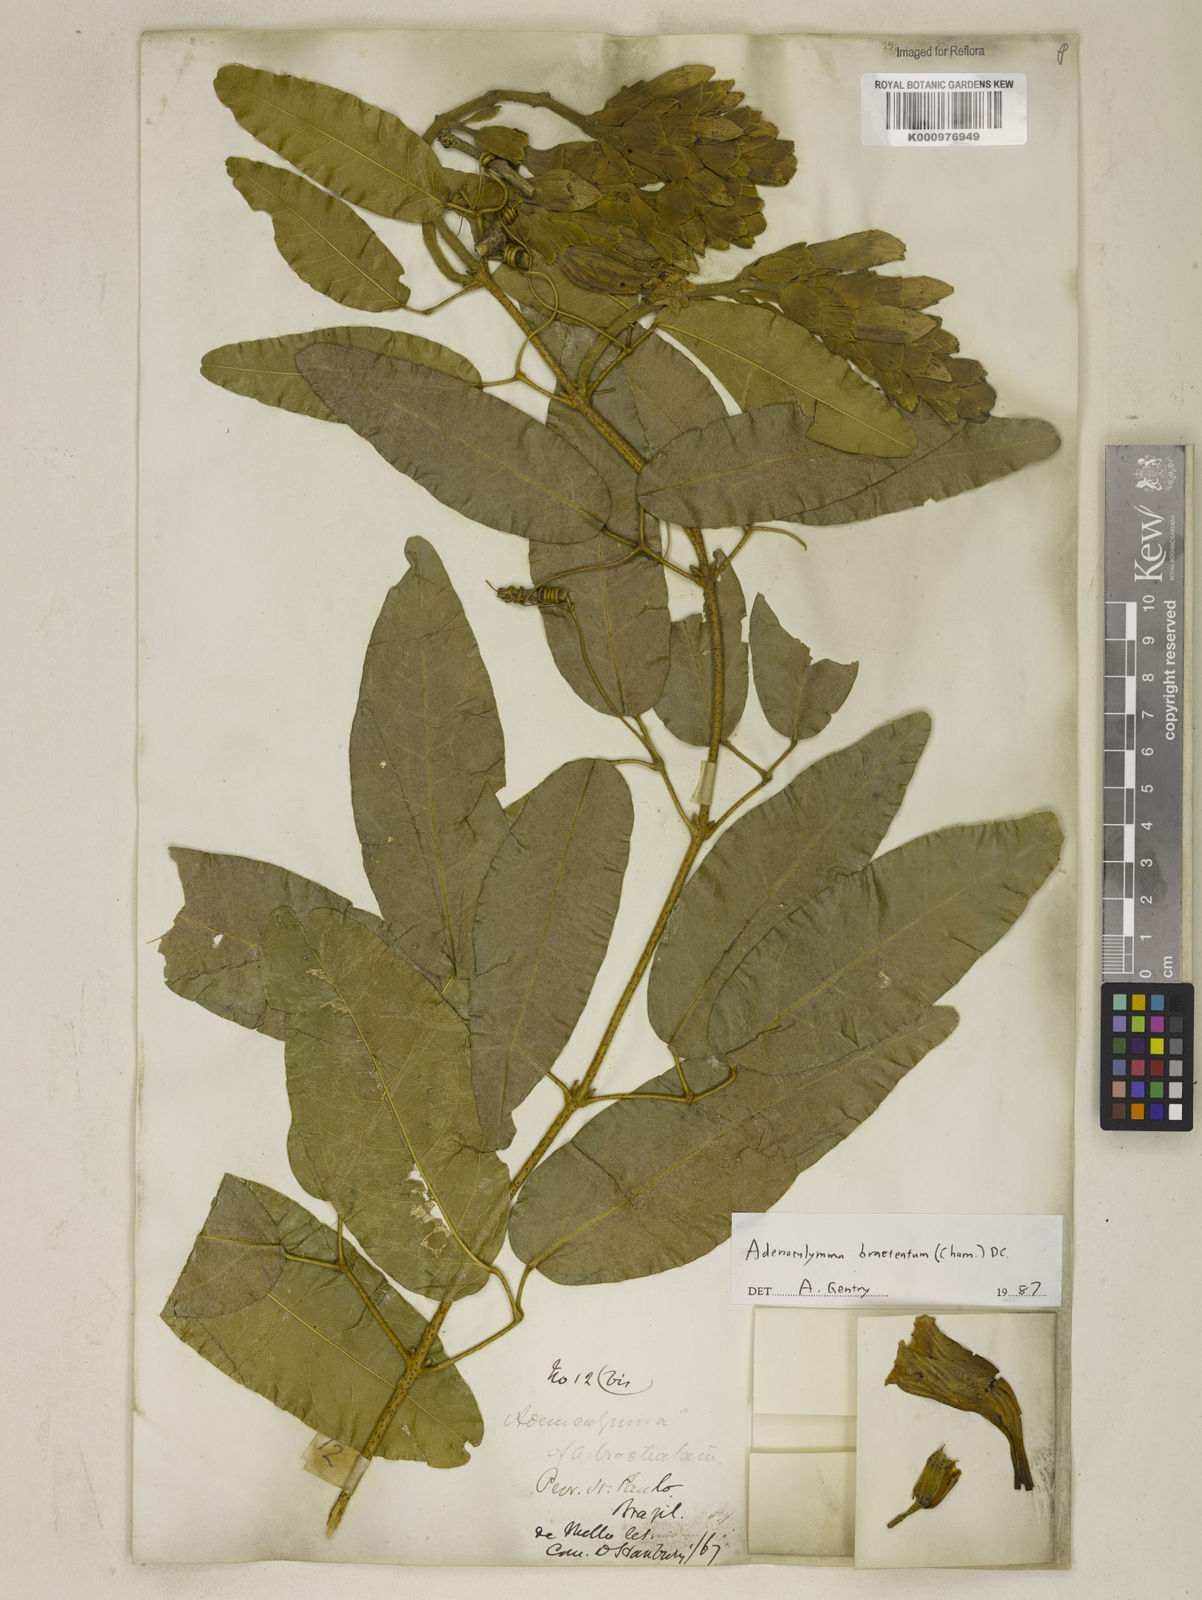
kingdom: Plantae
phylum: Tracheophyta
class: Magnoliopsida
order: Lamiales
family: Bignoniaceae
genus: Adenocalymma
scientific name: Adenocalymma bracteatum
